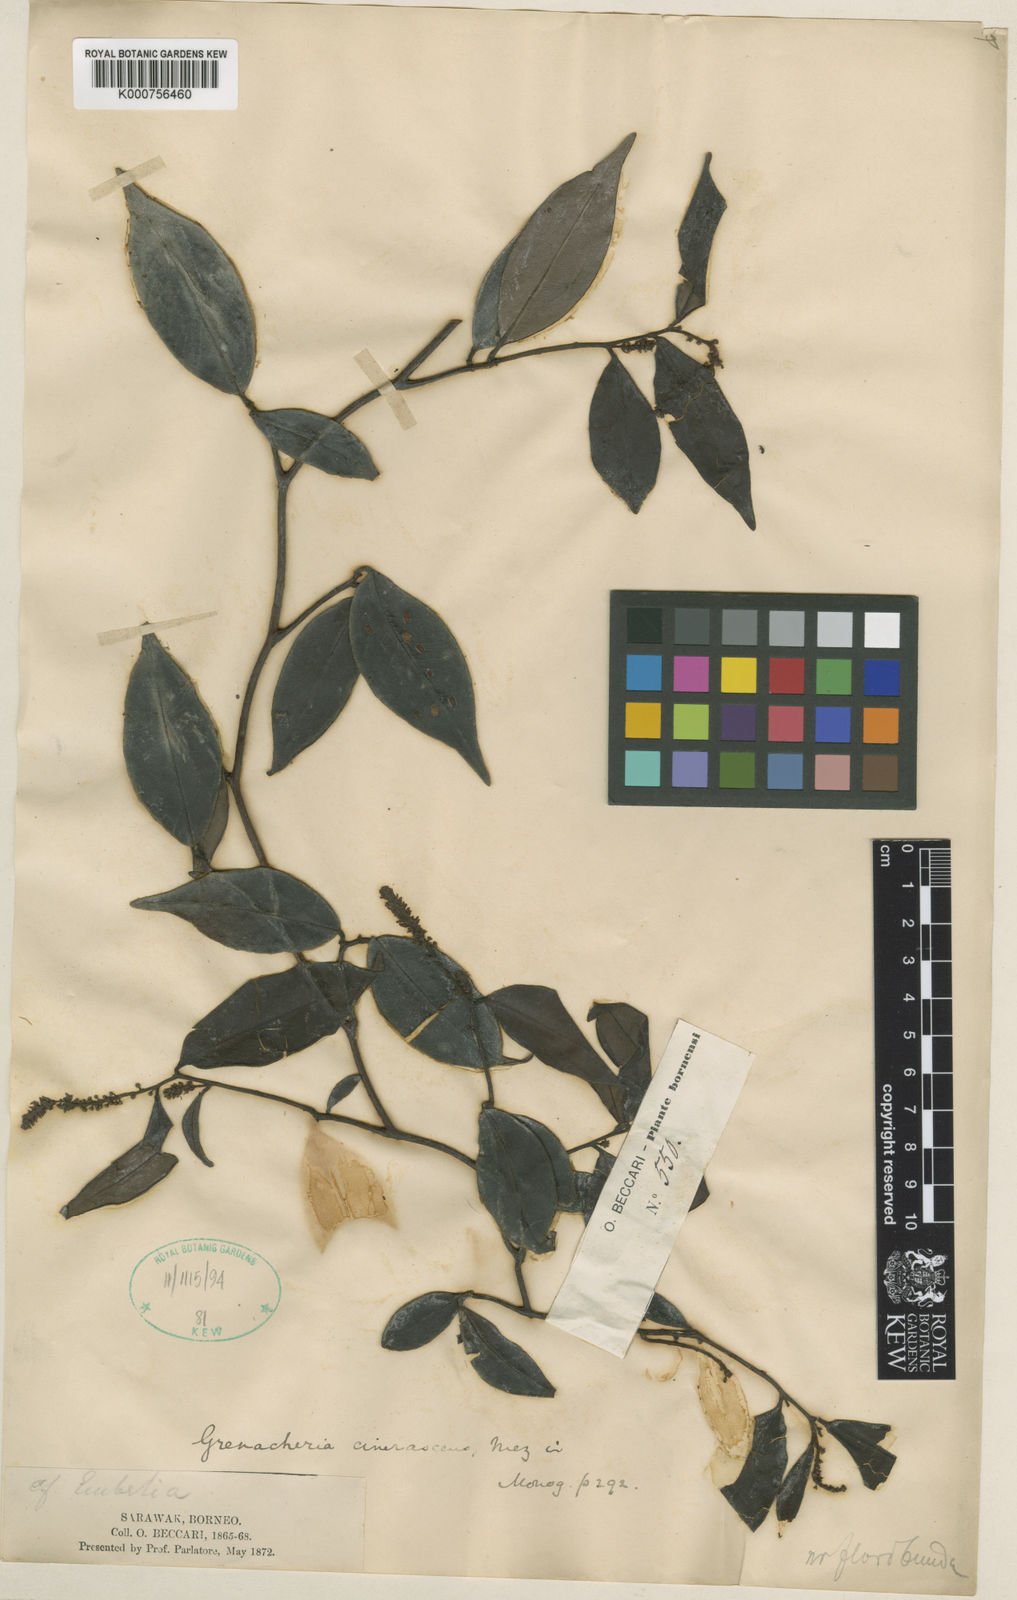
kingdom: Plantae
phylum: Tracheophyta
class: Magnoliopsida
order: Ericales
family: Primulaceae
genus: Grenacheria
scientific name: Grenacheria cinerascens
